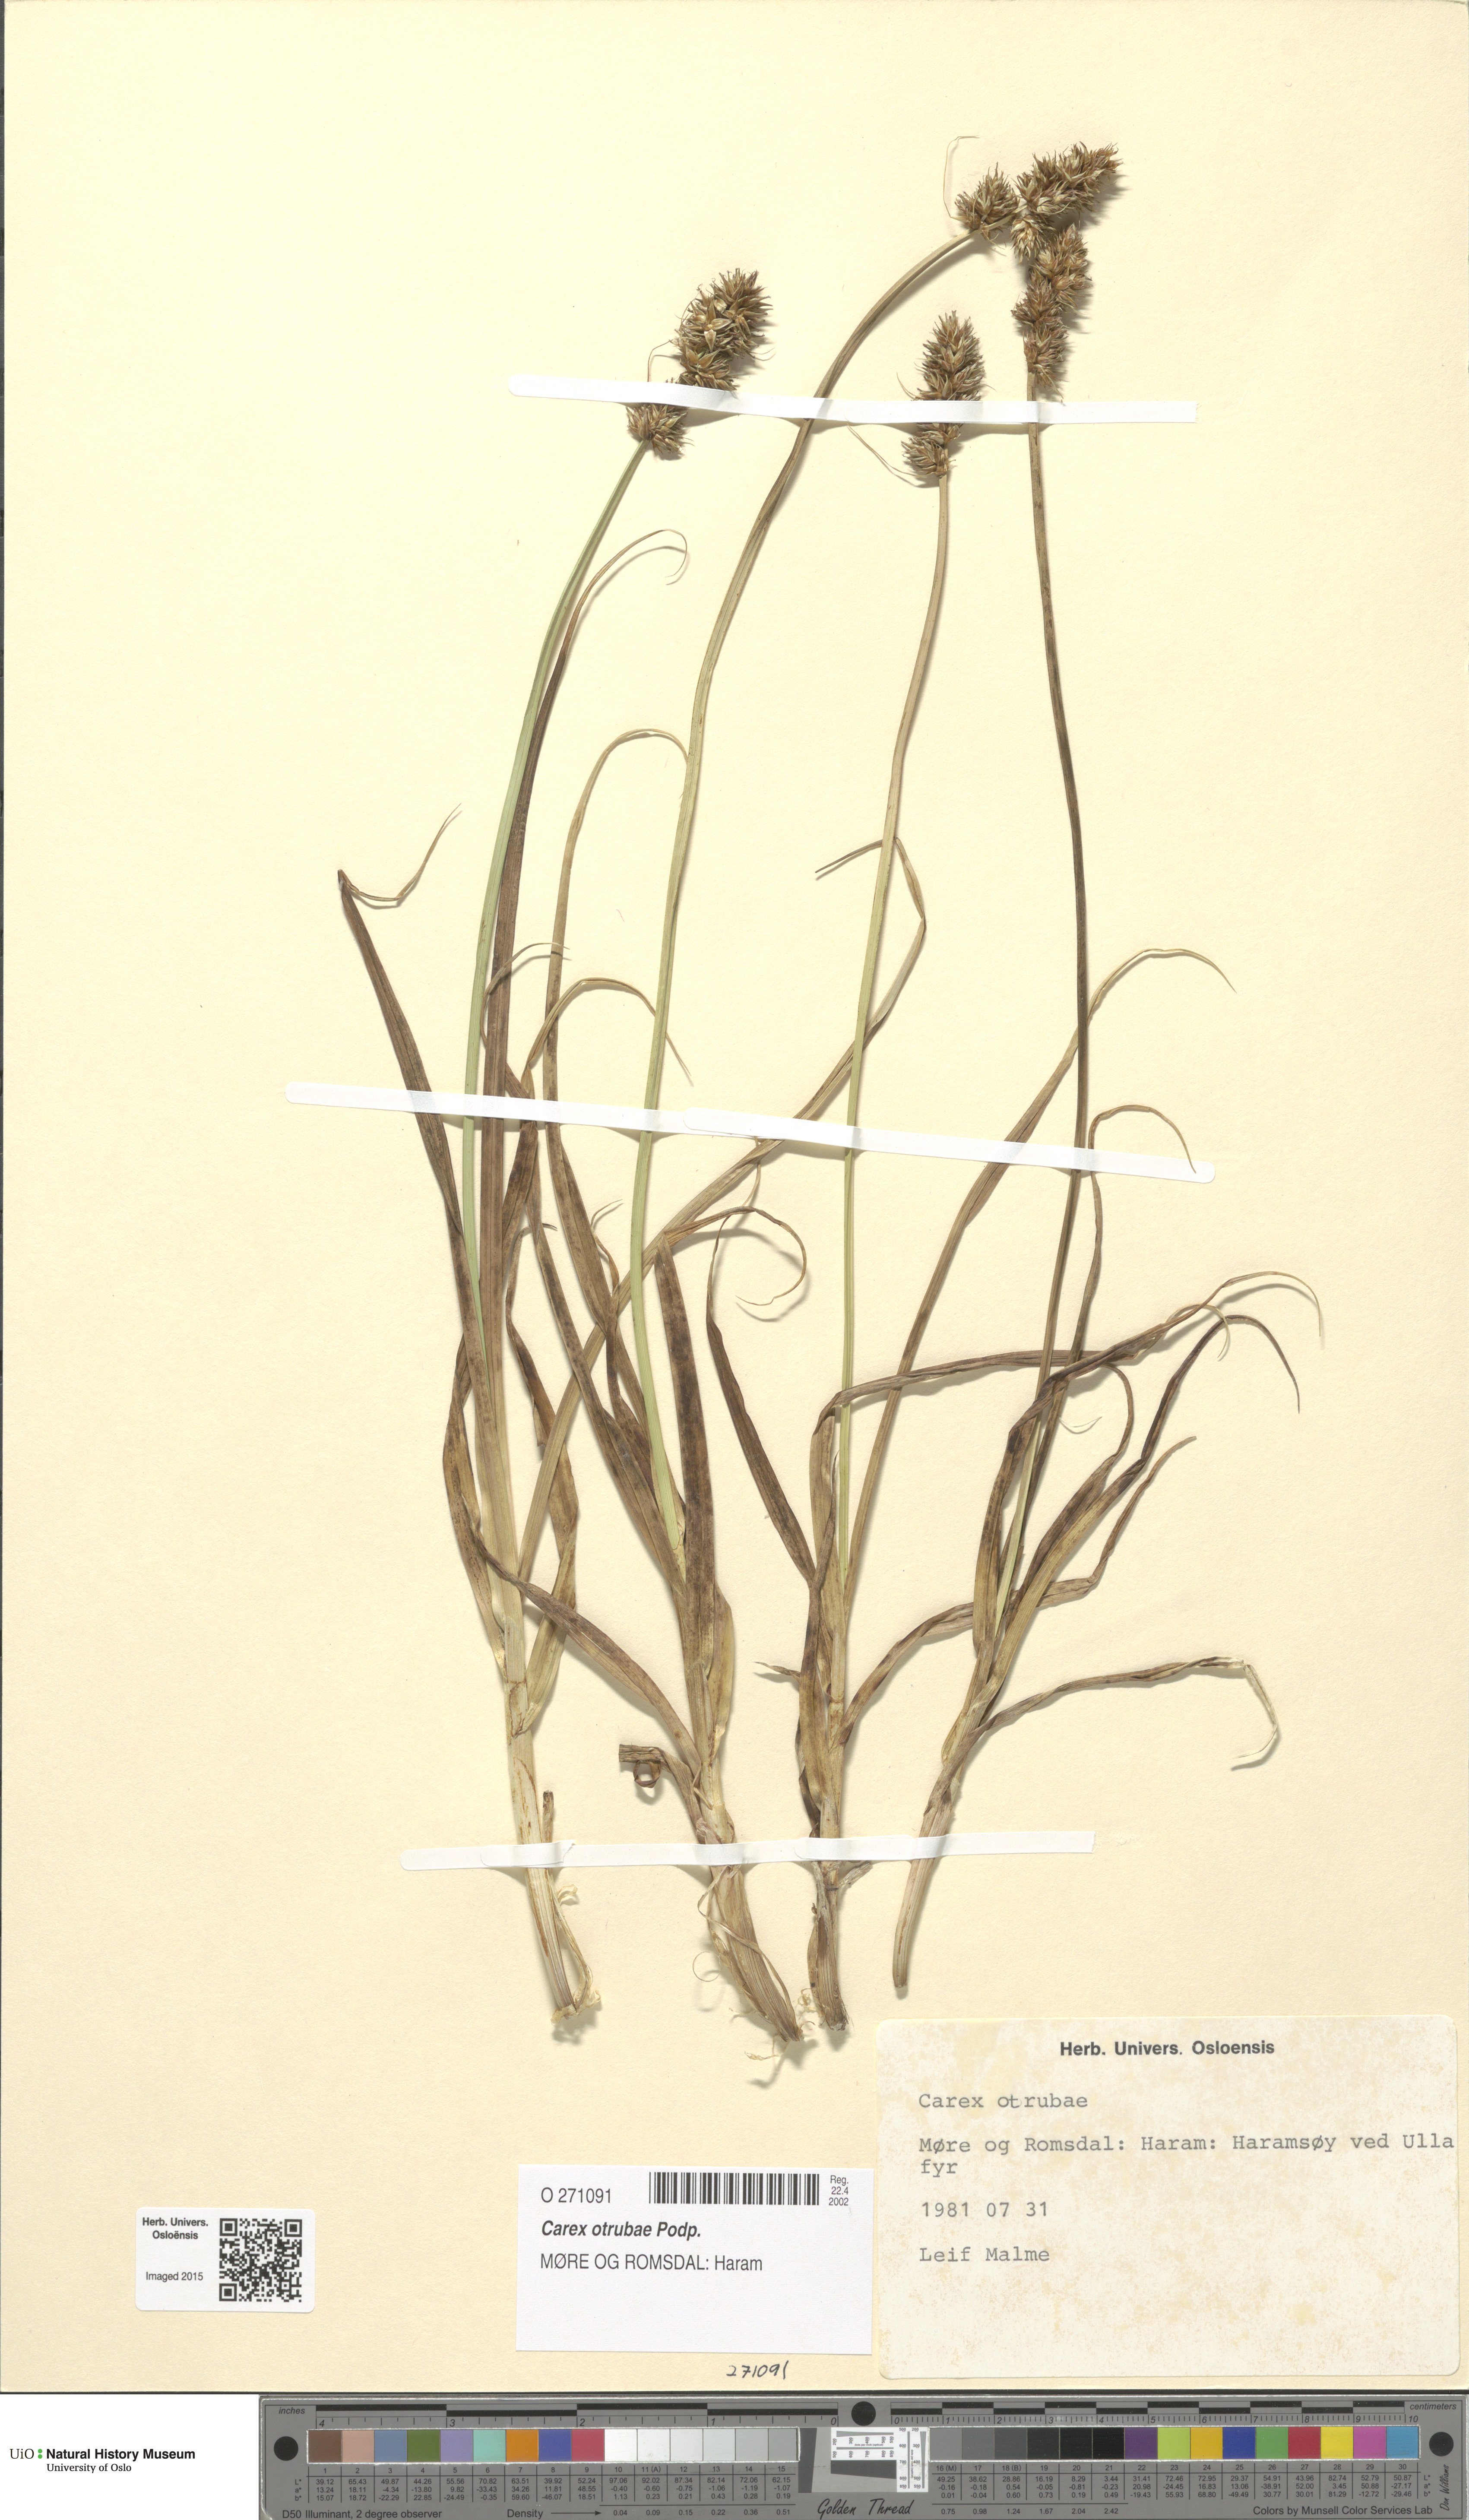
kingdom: Plantae
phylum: Tracheophyta
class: Liliopsida
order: Poales
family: Cyperaceae
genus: Carex
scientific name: Carex otrubae
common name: False fox-sedge
